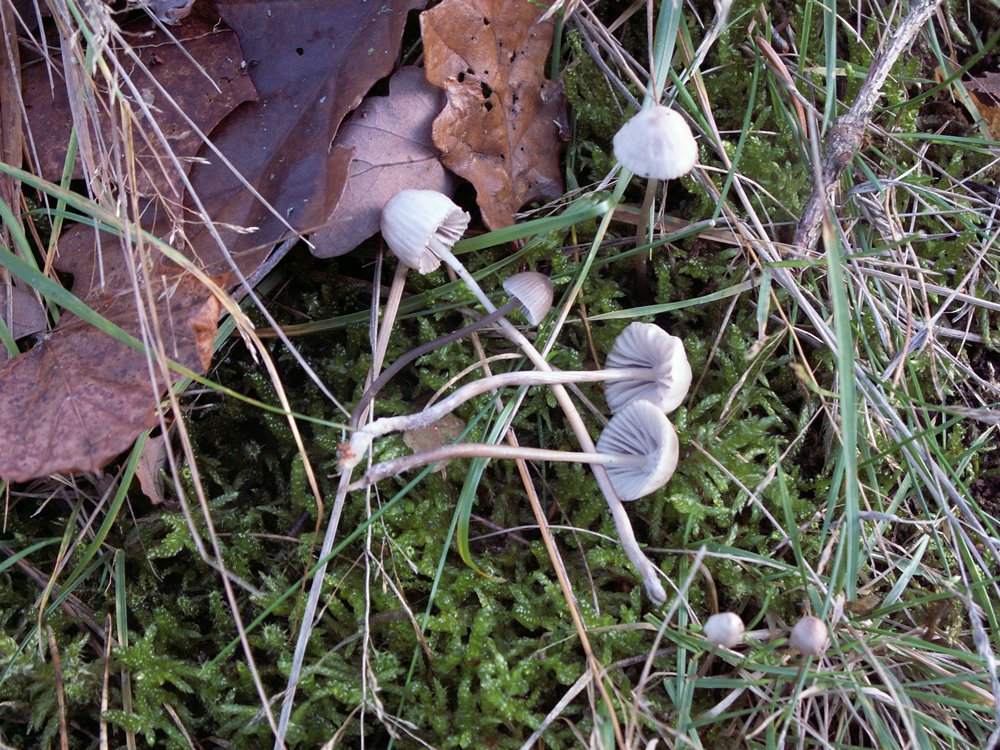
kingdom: Fungi
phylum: Basidiomycota
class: Agaricomycetes
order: Agaricales
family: Mycenaceae
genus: Mycena
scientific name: Mycena capillaripes
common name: nåle-huesvamp
